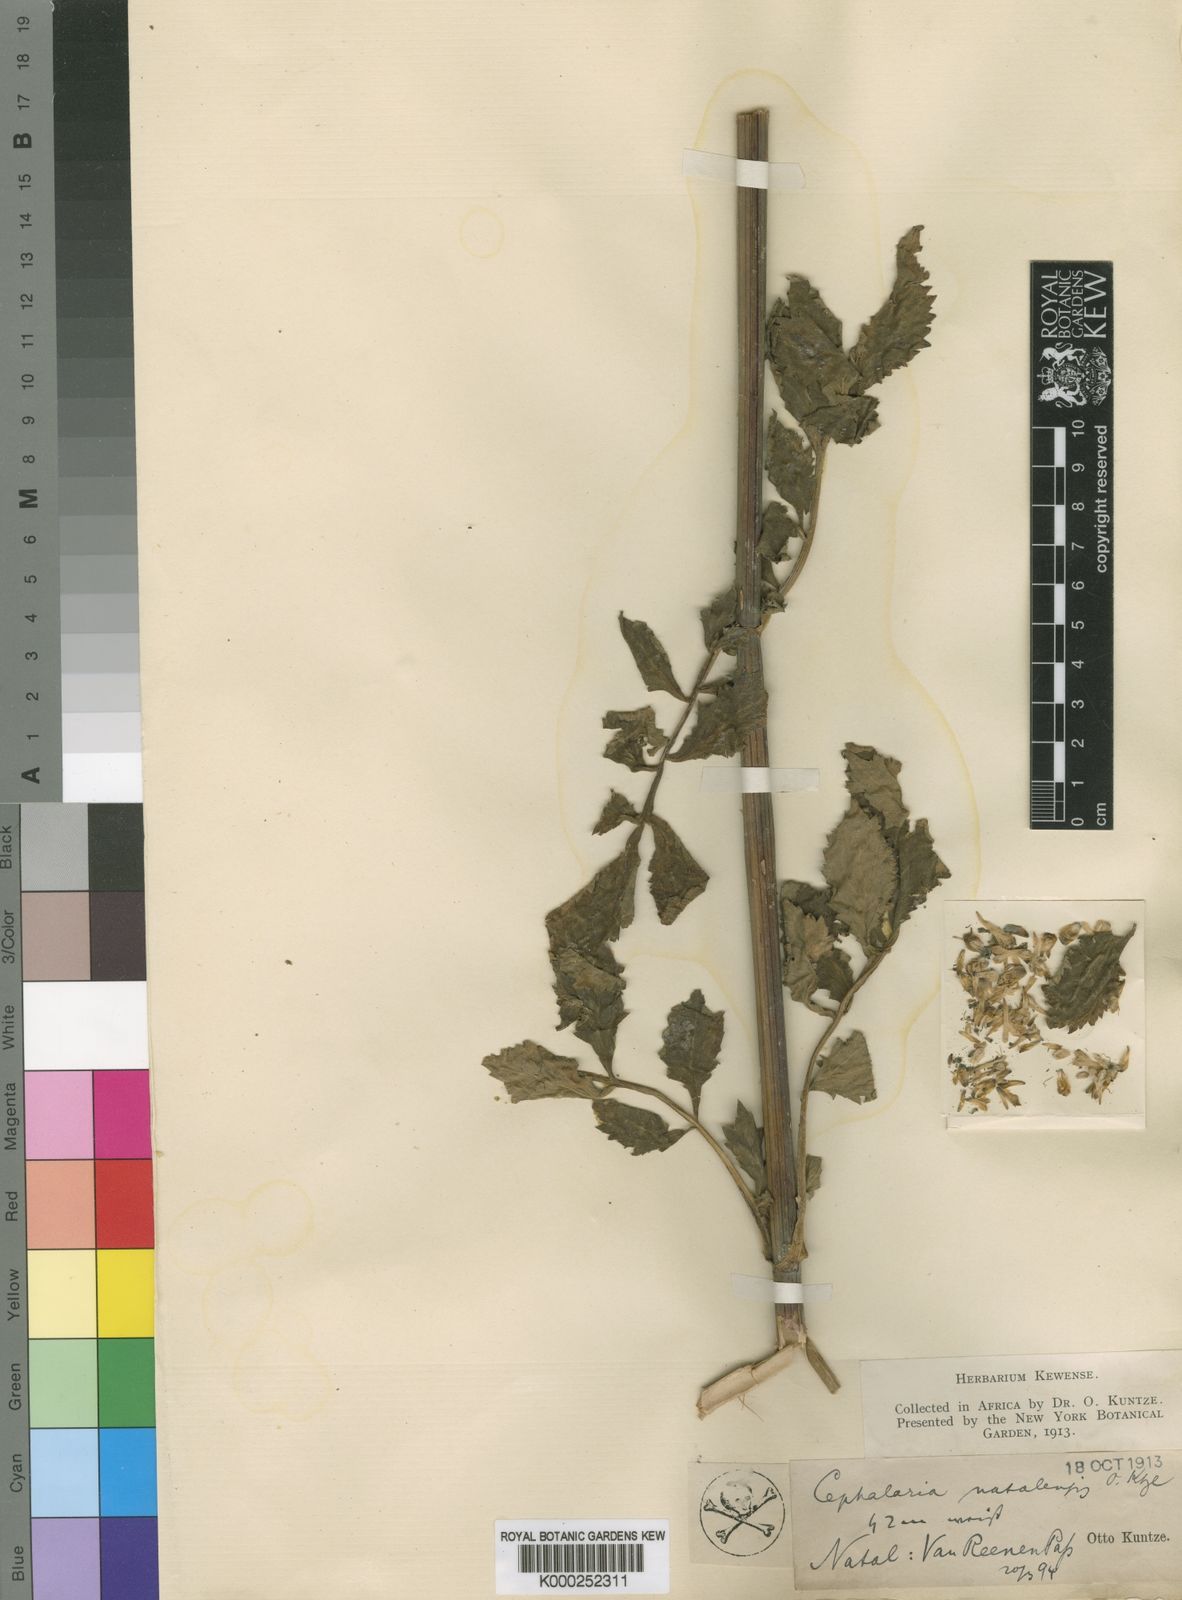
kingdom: Plantae
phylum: Tracheophyta
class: Magnoliopsida
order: Dipsacales
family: Caprifoliaceae
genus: Cephalaria
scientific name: Cephalaria natalensis
